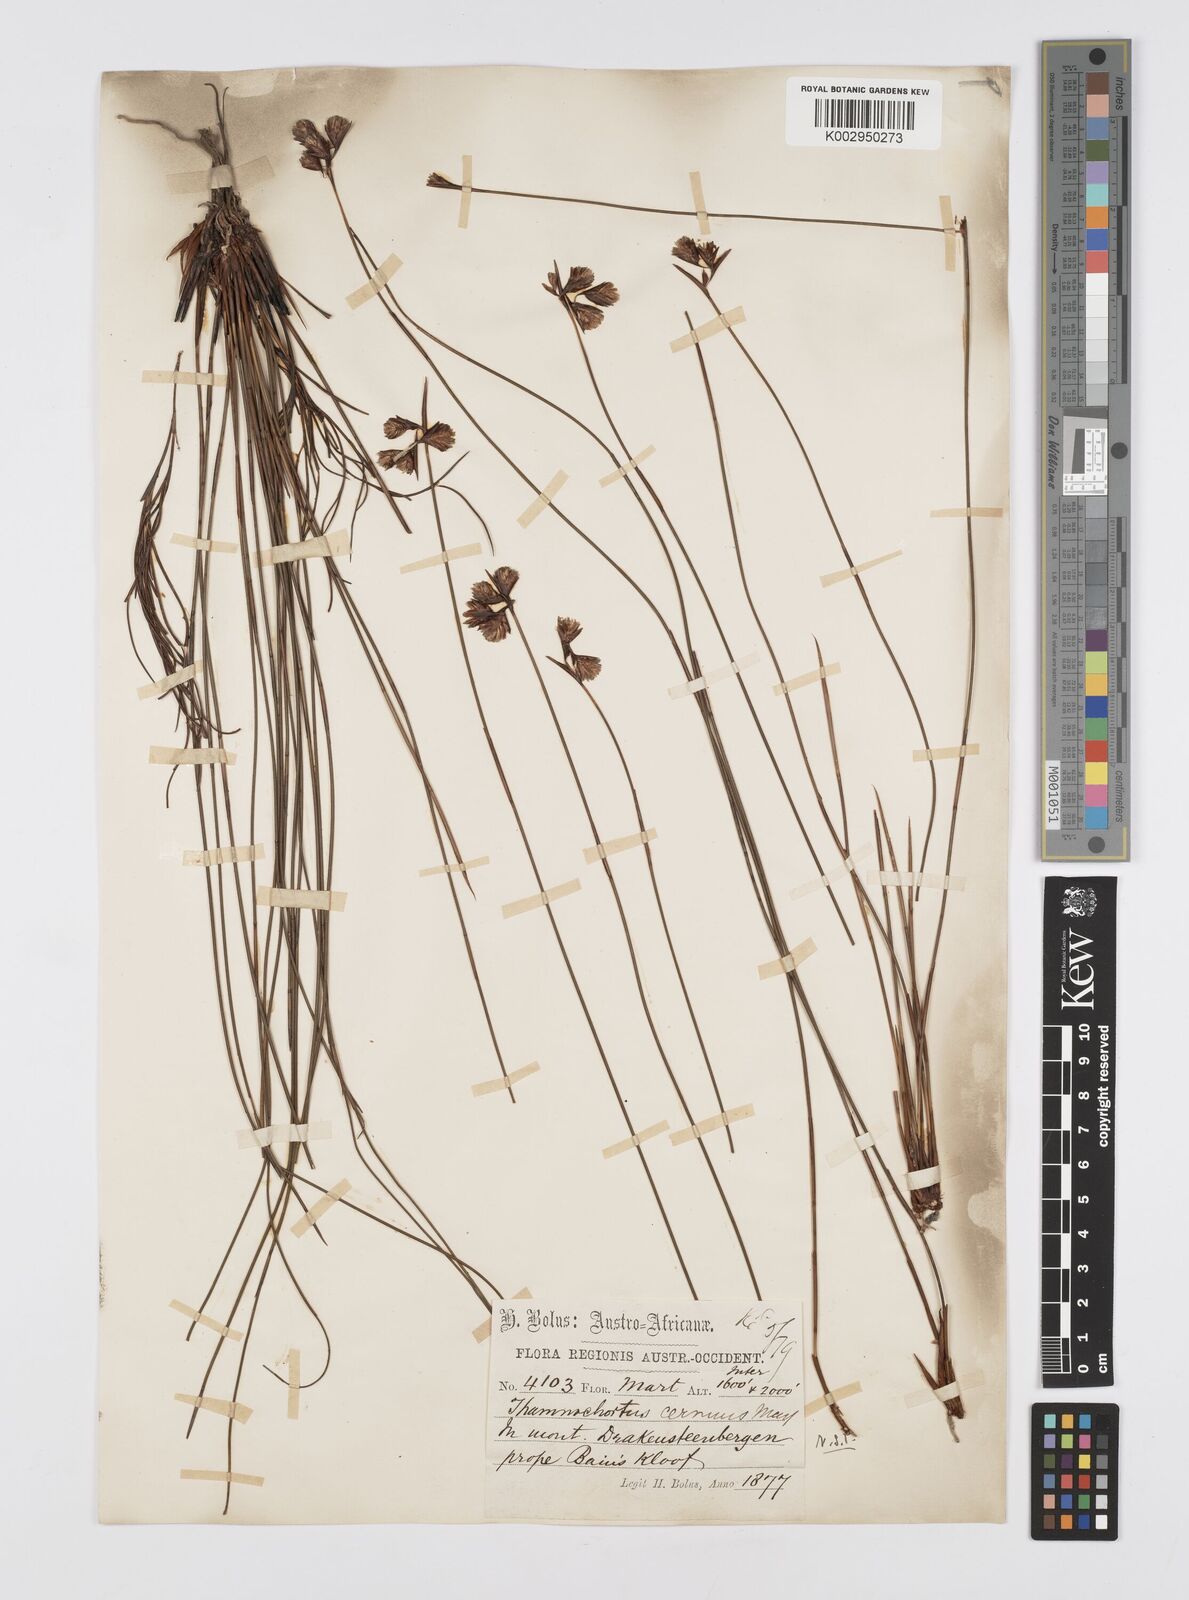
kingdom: Plantae
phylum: Tracheophyta
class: Liliopsida
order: Poales
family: Restionaceae
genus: Staberoha
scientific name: Staberoha cernua
